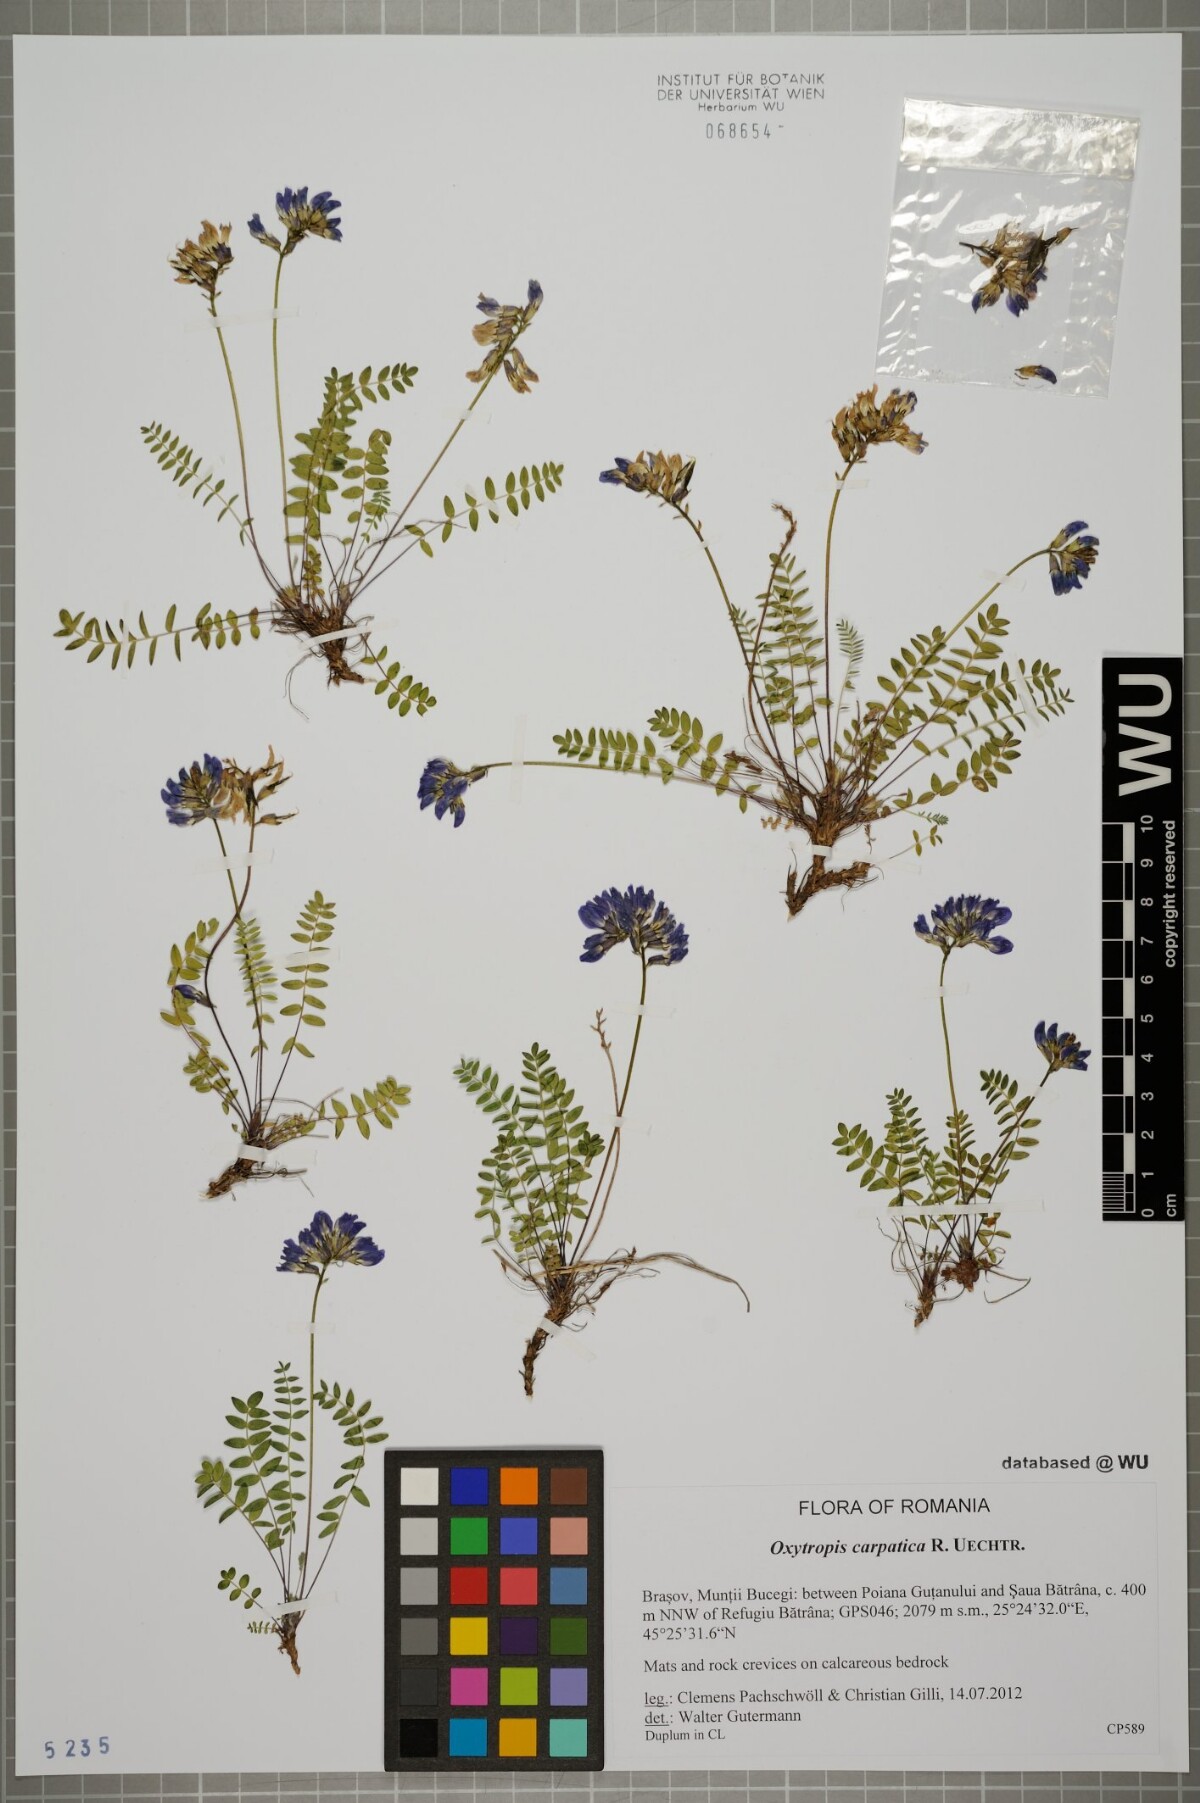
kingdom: Plantae
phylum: Tracheophyta
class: Magnoliopsida
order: Fabales
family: Fabaceae
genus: Oxytropis
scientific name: Oxytropis carpatica
